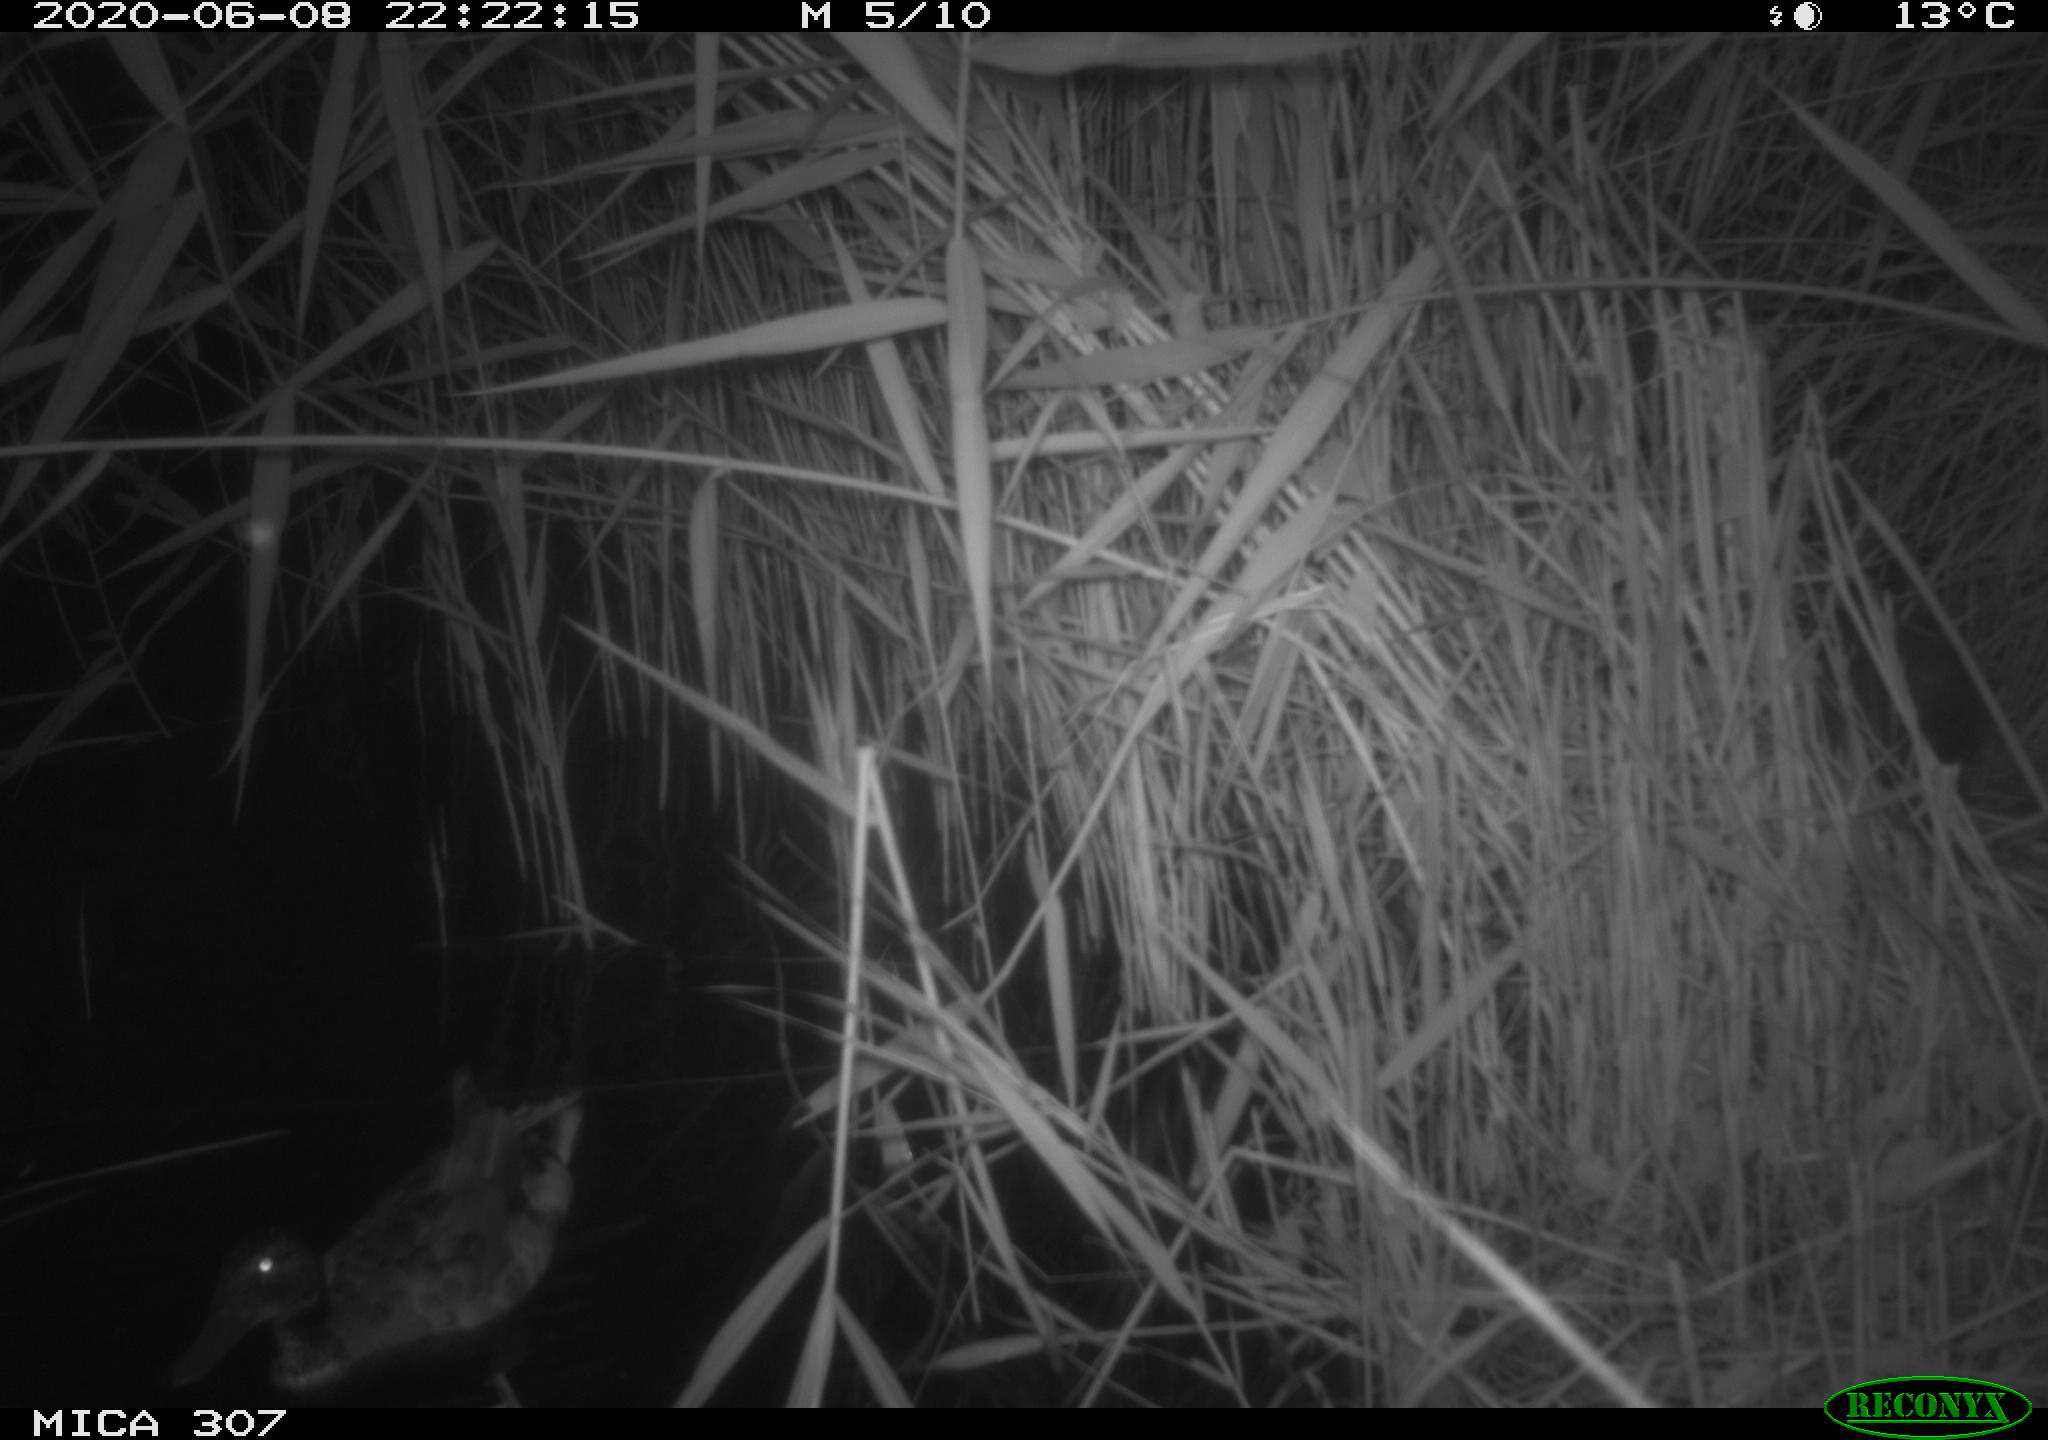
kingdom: Animalia
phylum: Chordata
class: Aves
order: Anseriformes
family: Anatidae
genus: Anas
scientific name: Anas platyrhynchos
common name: Mallard
